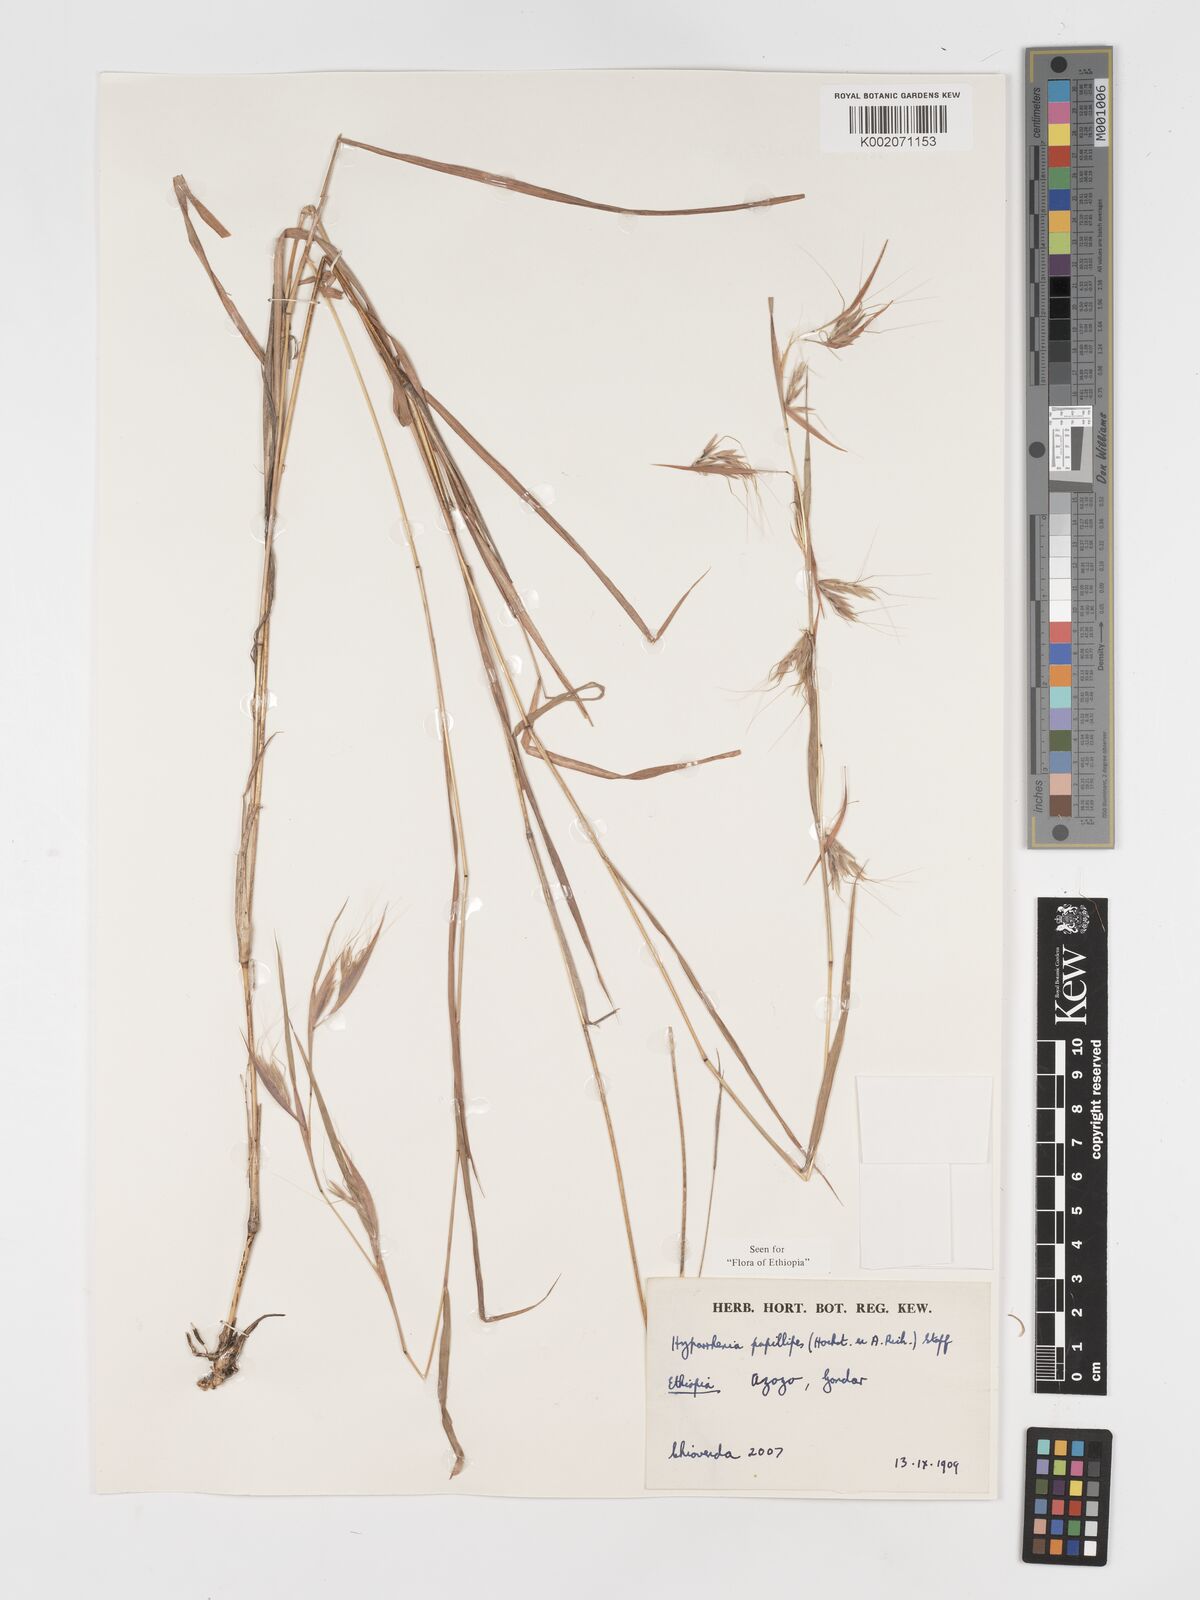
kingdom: Plantae
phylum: Tracheophyta
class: Liliopsida
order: Poales
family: Poaceae
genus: Hyparrhenia
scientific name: Hyparrhenia papillipes
